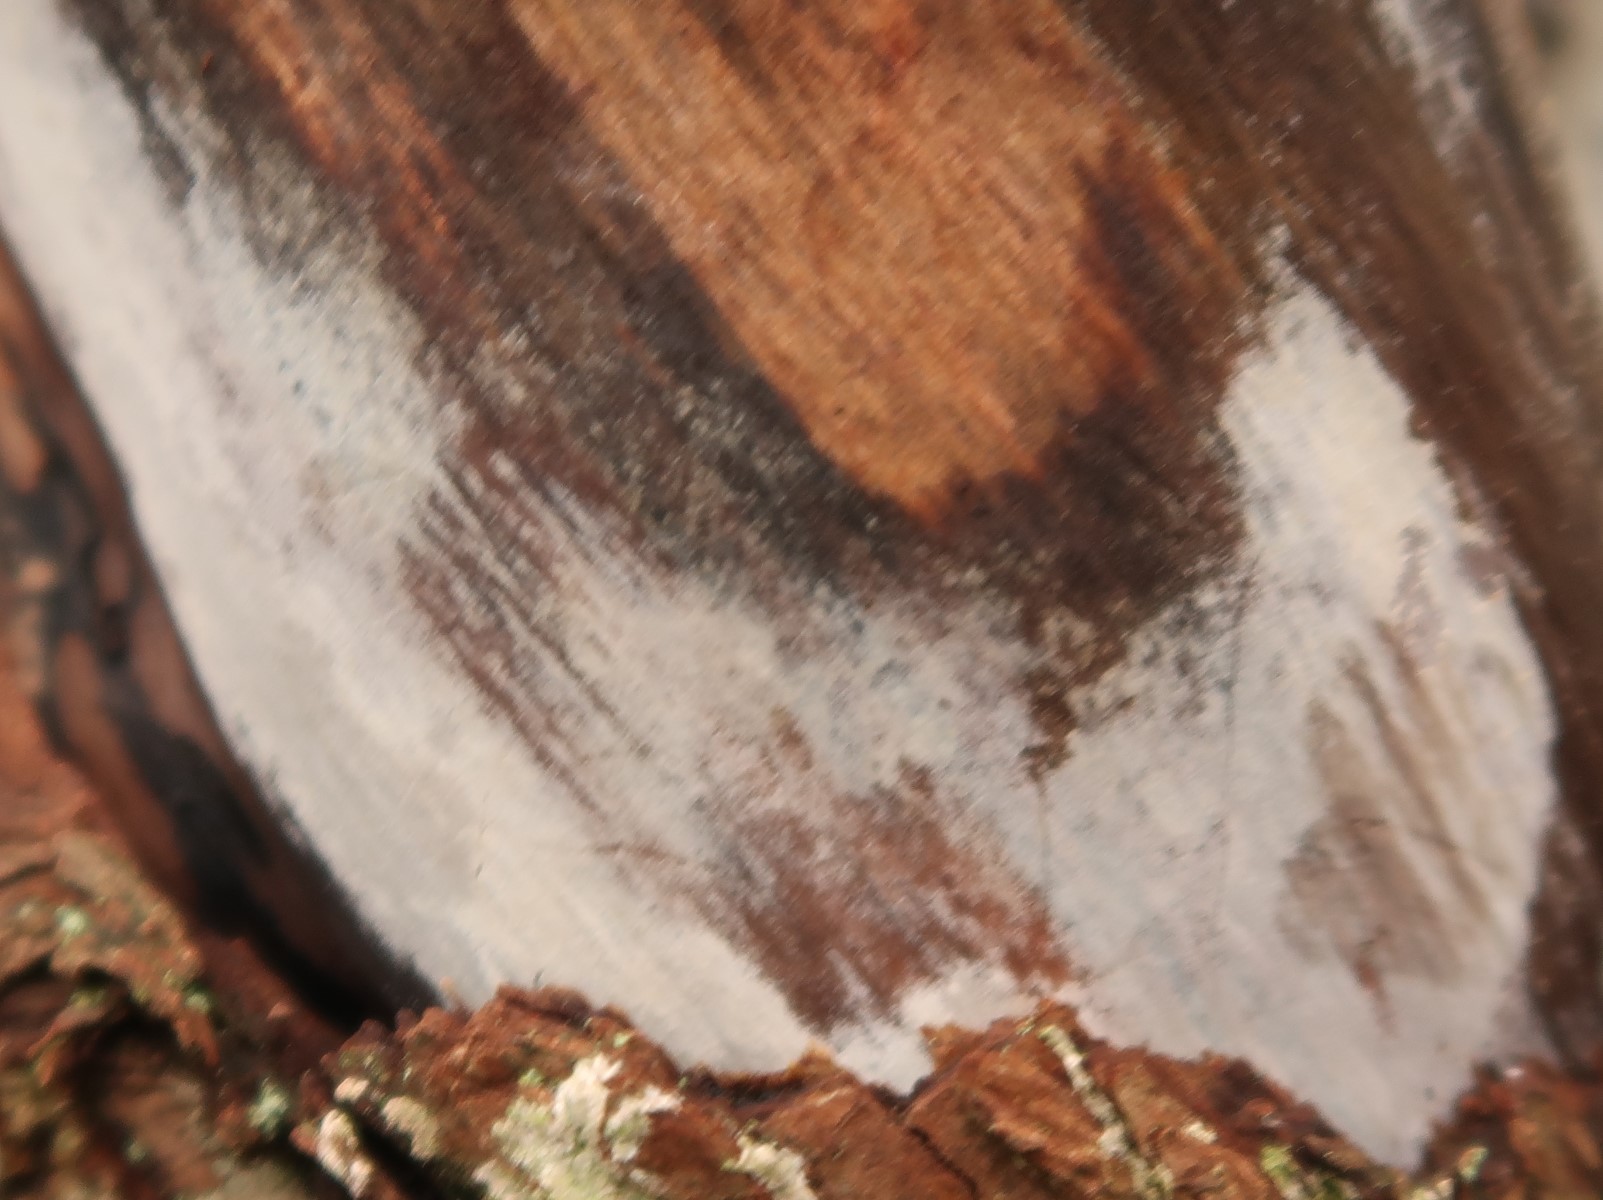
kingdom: Fungi
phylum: Basidiomycota
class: Tremellomycetes
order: Tremellales
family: Exidiaceae
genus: Exidiopsis
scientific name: Exidiopsis effusa
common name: smuk bævrehinde
